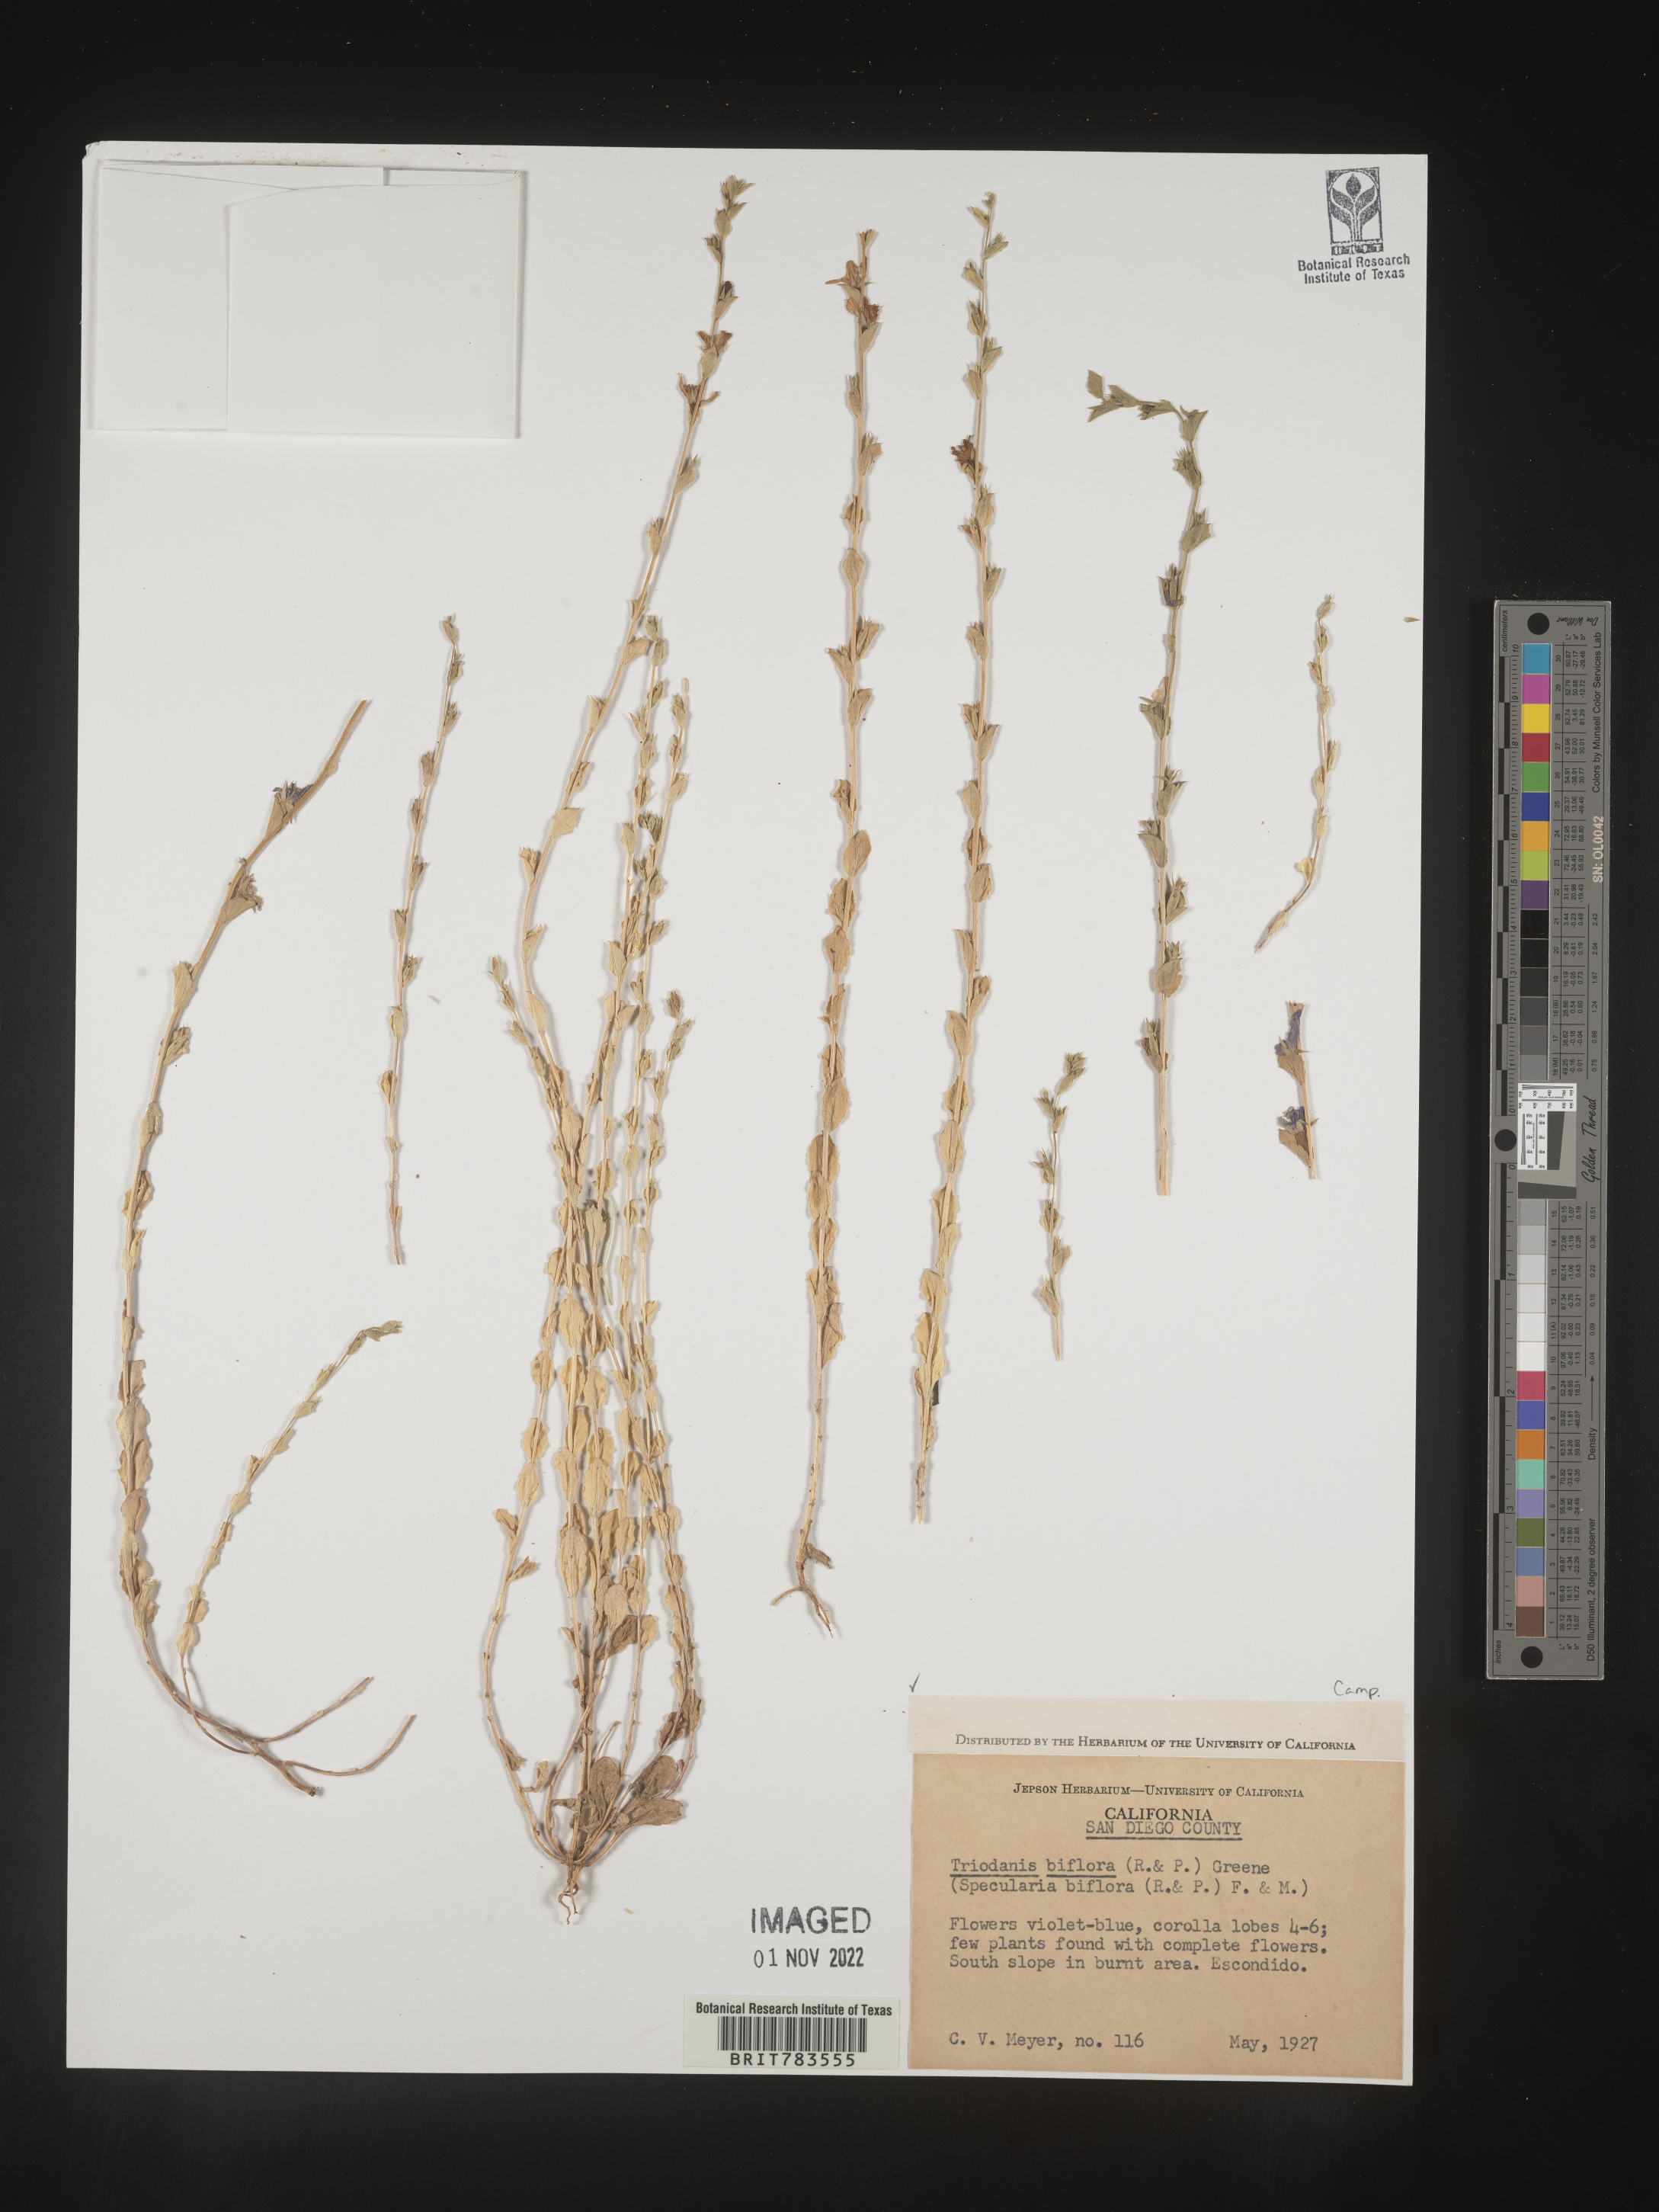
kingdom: Plantae
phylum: Tracheophyta
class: Magnoliopsida
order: Asterales
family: Campanulaceae
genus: Triodanis
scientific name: Triodanis perfoliata
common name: Clasping venus' looking-glass
